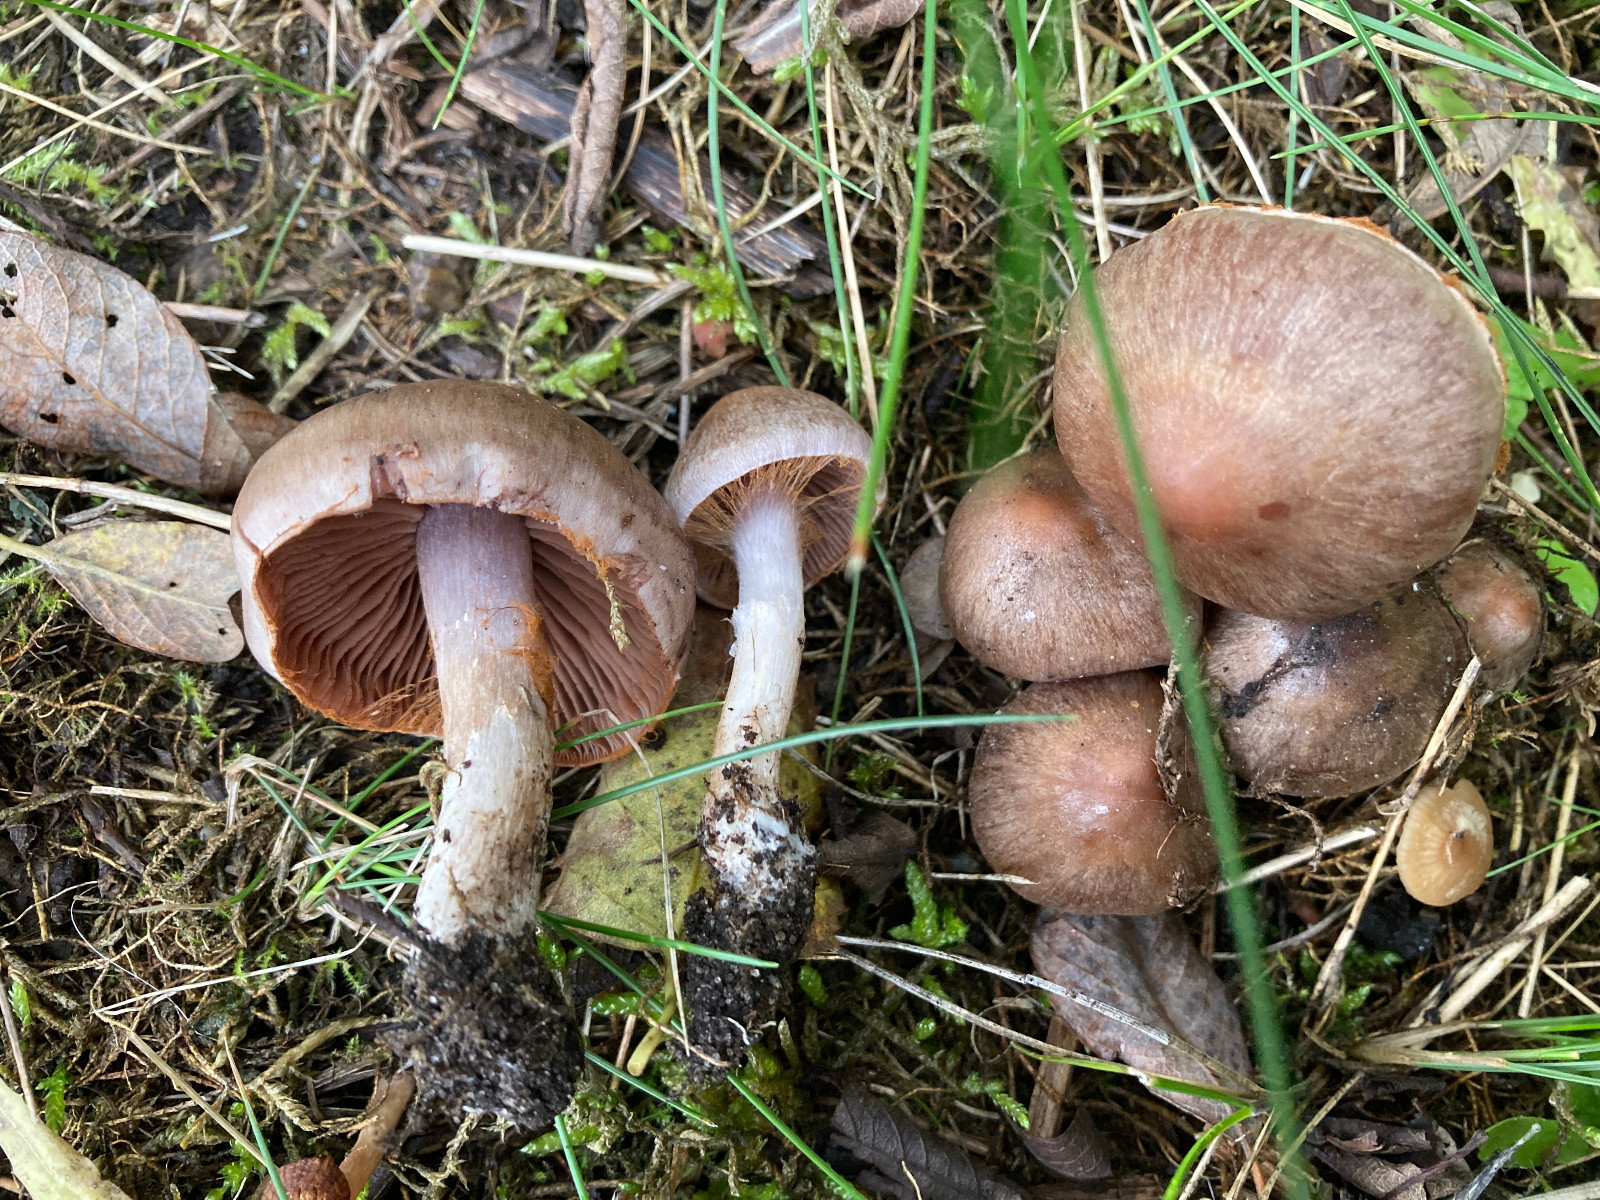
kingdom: Fungi
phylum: Basidiomycota
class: Agaricomycetes
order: Agaricales
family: Cortinariaceae
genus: Cortinarius
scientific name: Cortinarius
